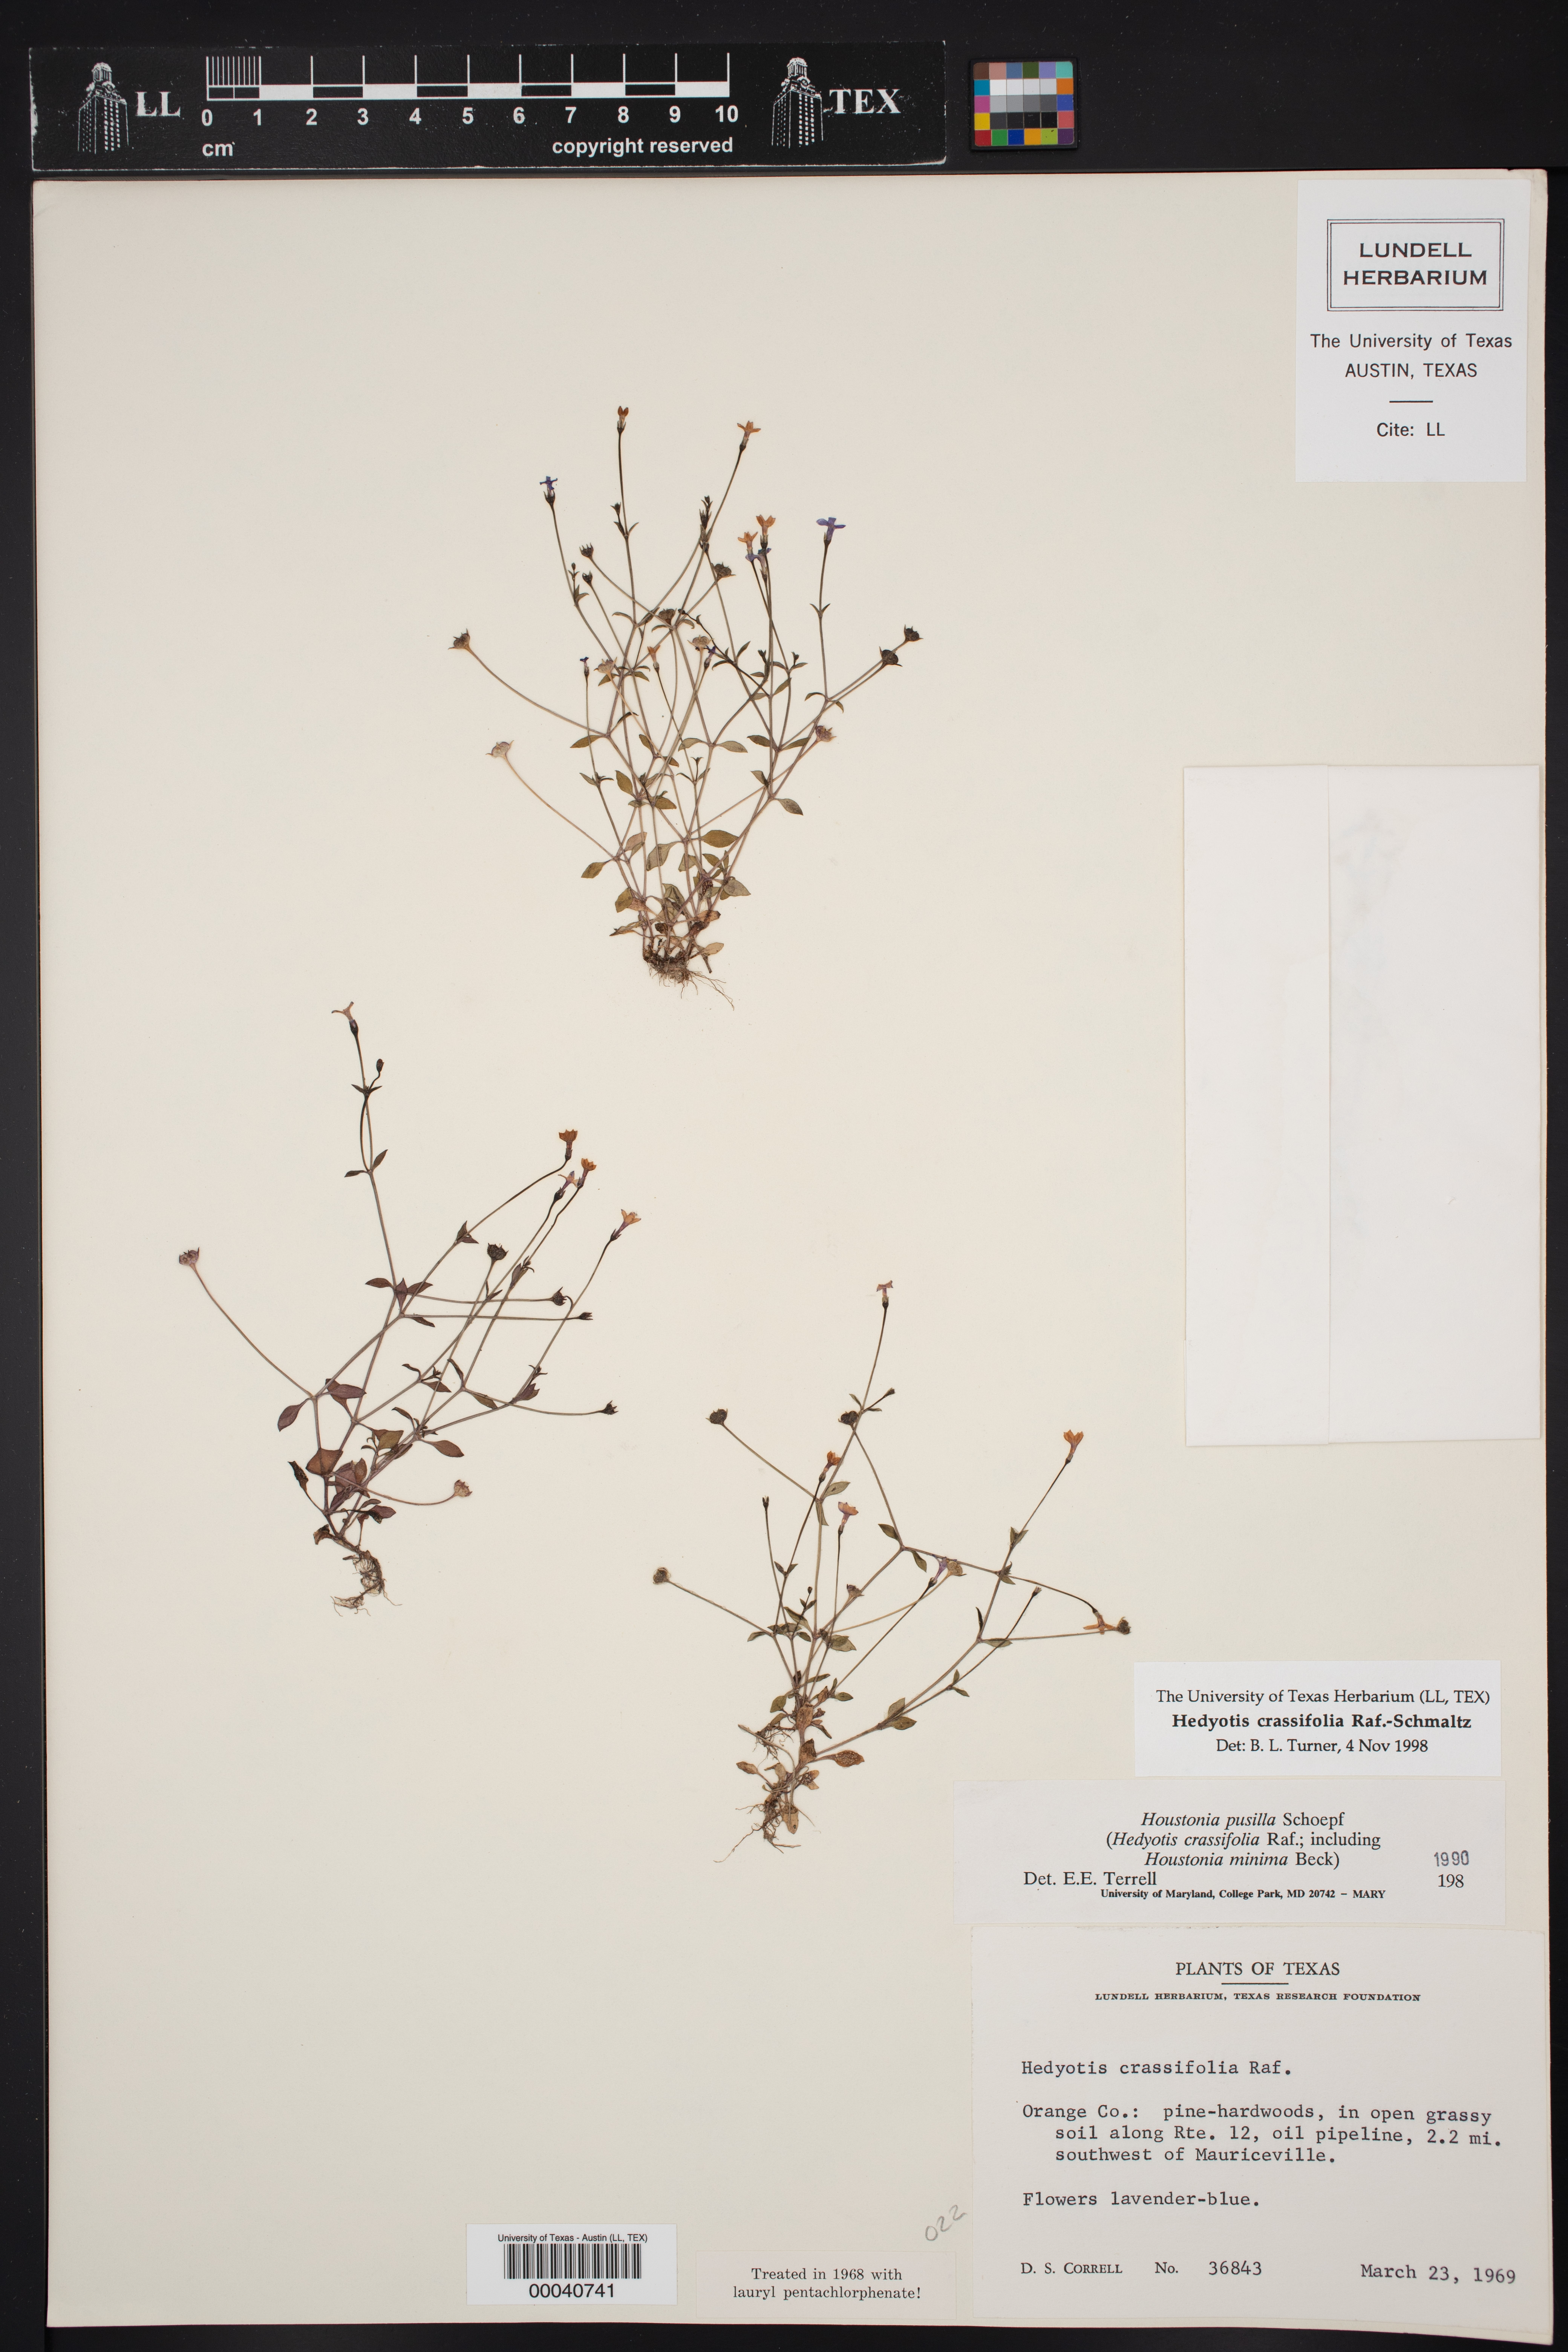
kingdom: Plantae
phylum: Tracheophyta
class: Magnoliopsida
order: Gentianales
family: Rubiaceae
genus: Hedyotis
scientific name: Hedyotis crassifolia
